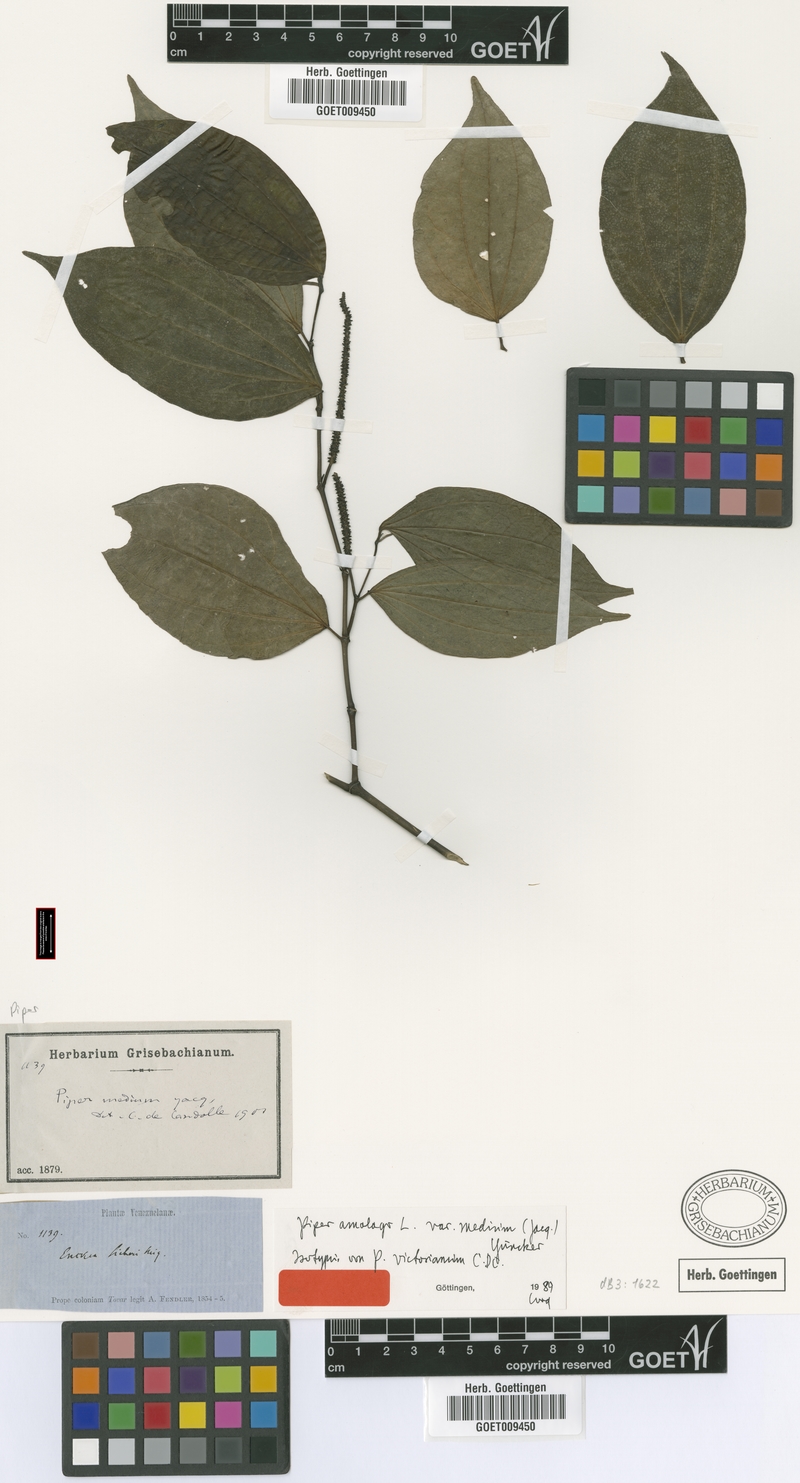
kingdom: Plantae
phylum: Tracheophyta
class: Magnoliopsida
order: Piperales
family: Piperaceae
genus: Piper
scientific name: Piper amalago
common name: Pepper-elder
